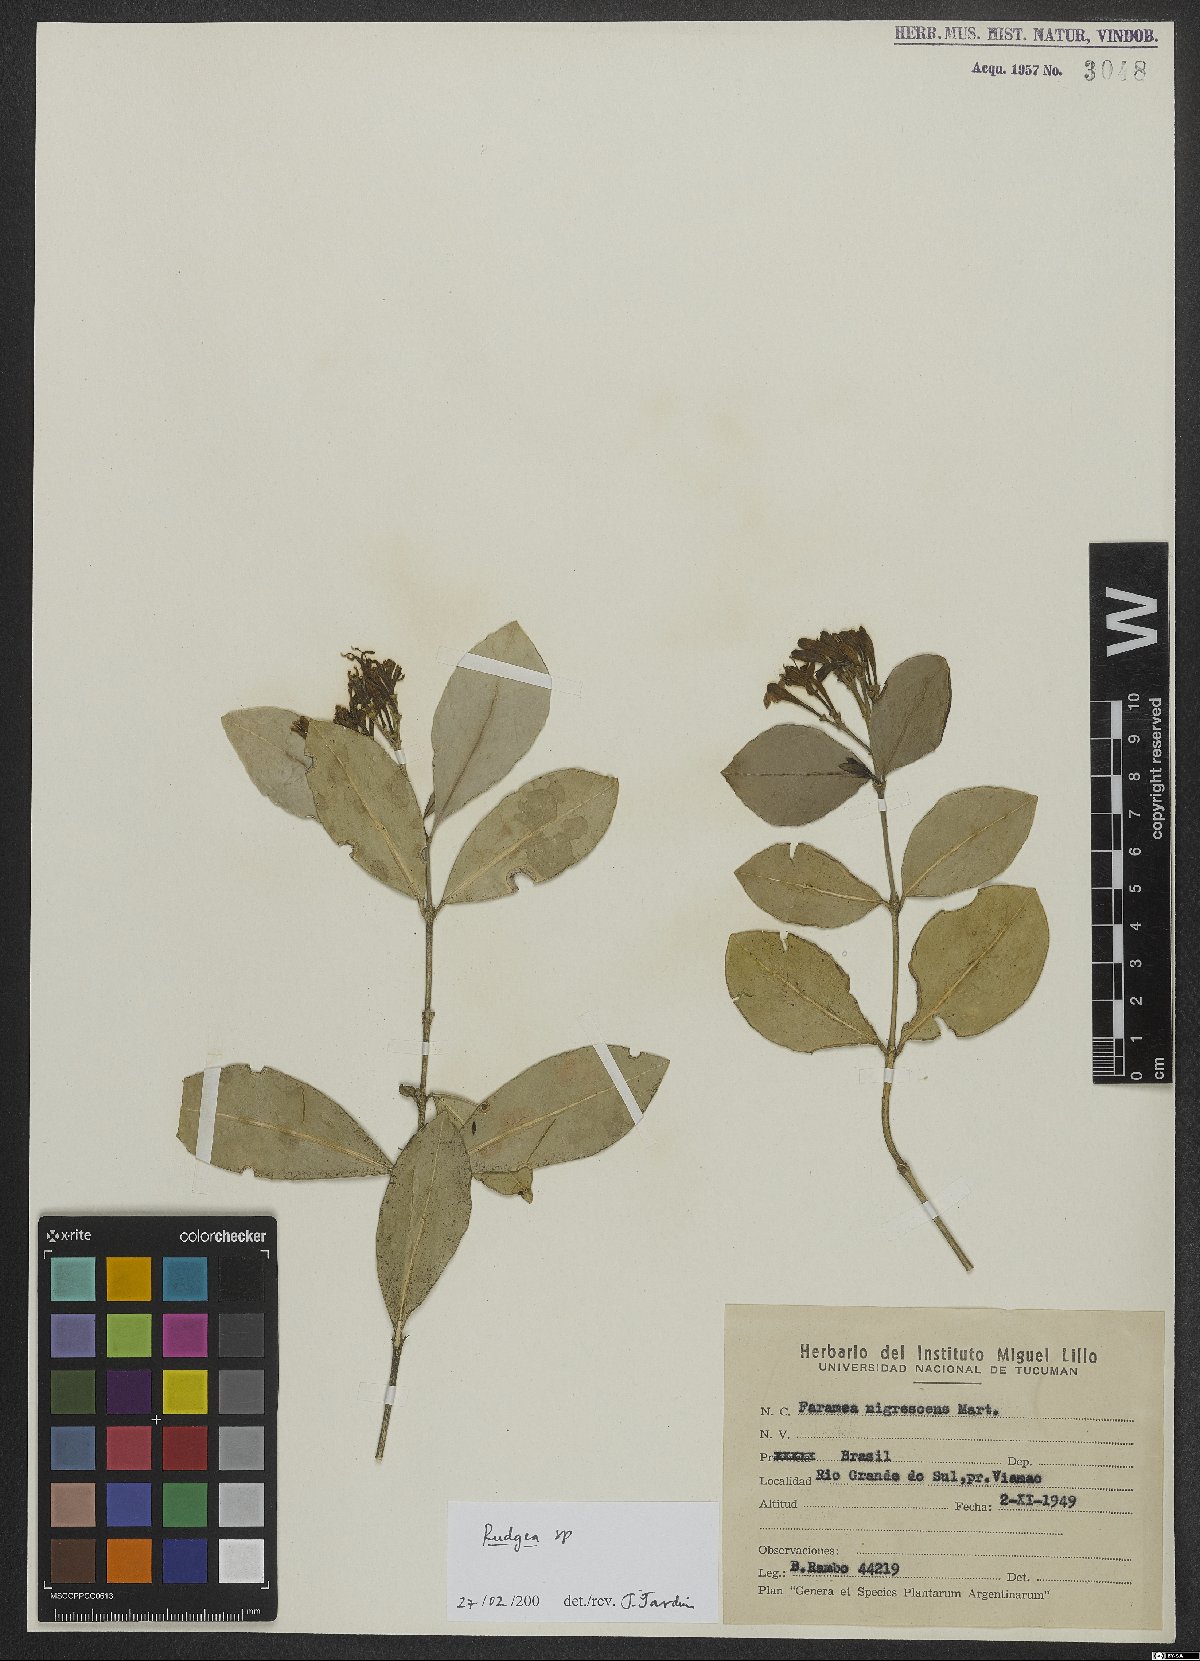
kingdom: Plantae
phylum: Tracheophyta
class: Magnoliopsida
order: Gentianales
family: Rubiaceae
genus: Rudgea
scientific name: Rudgea
